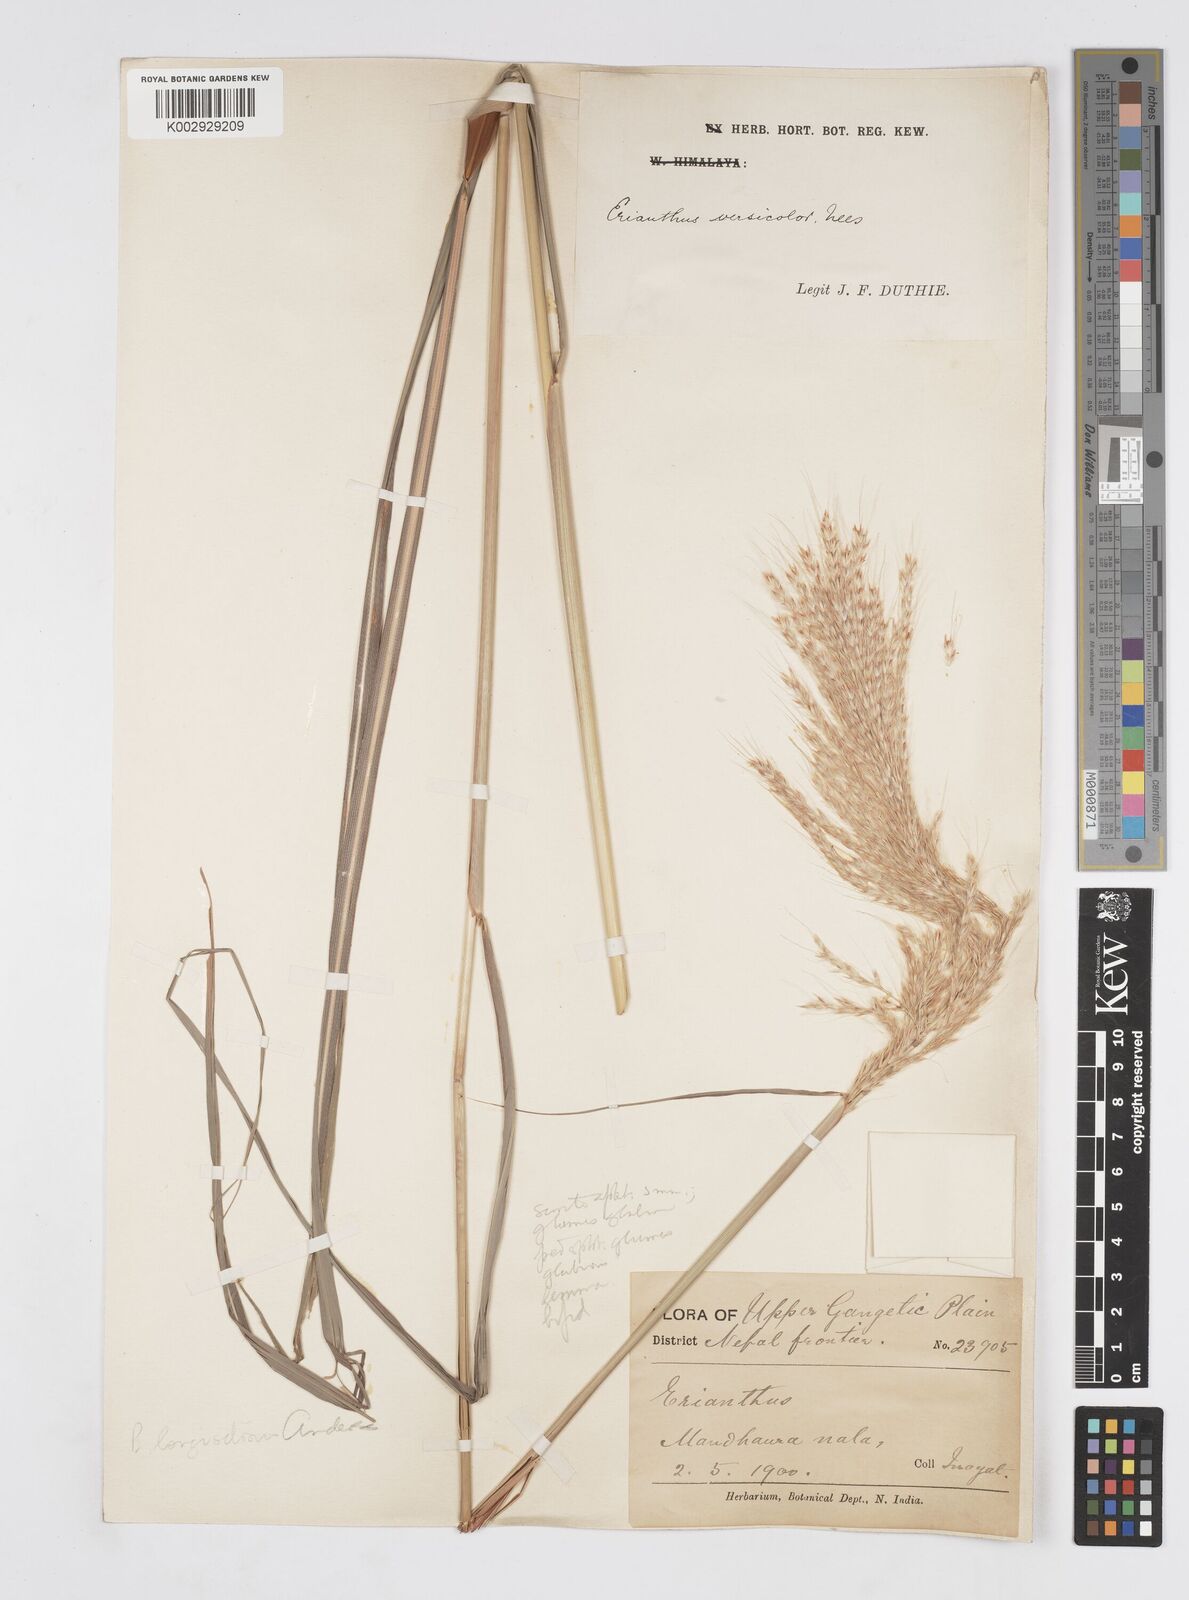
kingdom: Plantae
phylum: Tracheophyta
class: Liliopsida
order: Poales
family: Poaceae
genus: Melinis
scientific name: Melinis longiseta
